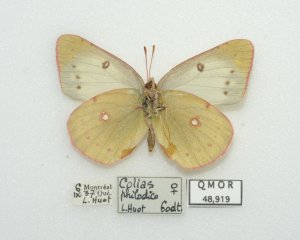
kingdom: Animalia
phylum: Arthropoda
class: Insecta
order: Lepidoptera
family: Pieridae
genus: Colias
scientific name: Colias philodice
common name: Clouded Sulphur
